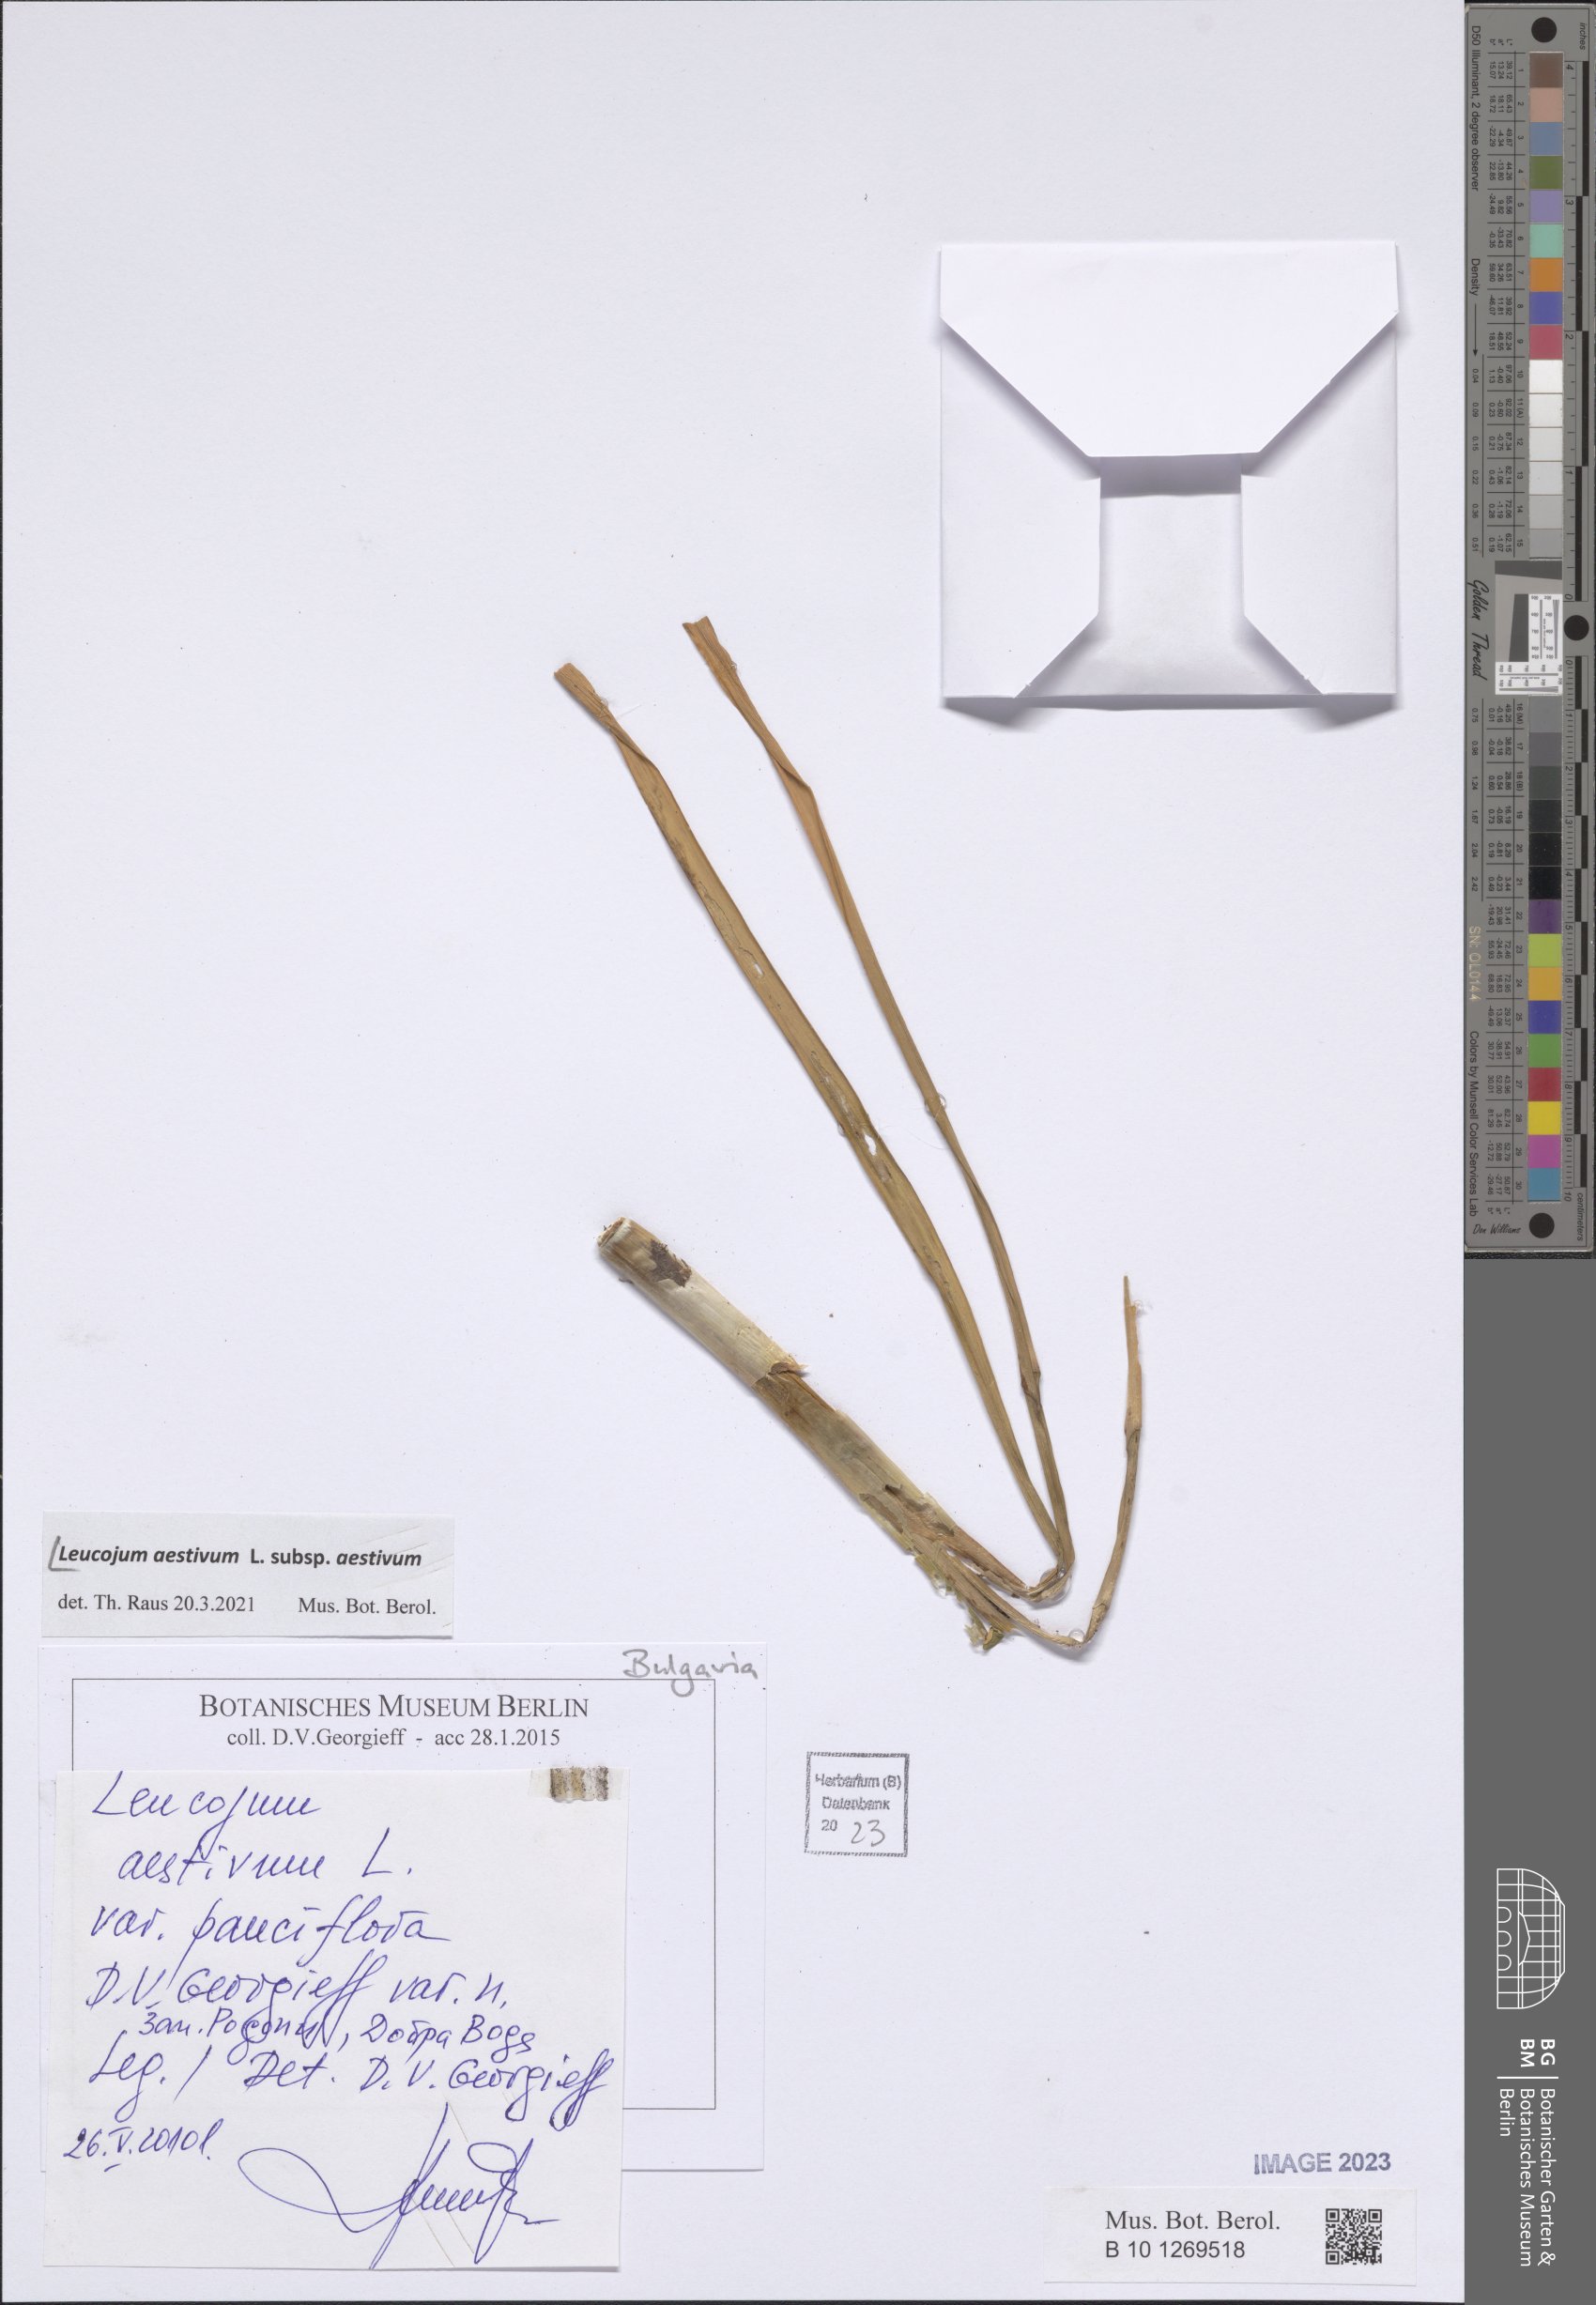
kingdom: Plantae
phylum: Tracheophyta
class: Liliopsida
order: Asparagales
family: Amaryllidaceae
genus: Leucojum
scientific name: Leucojum aestivum
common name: Summer snowflake
